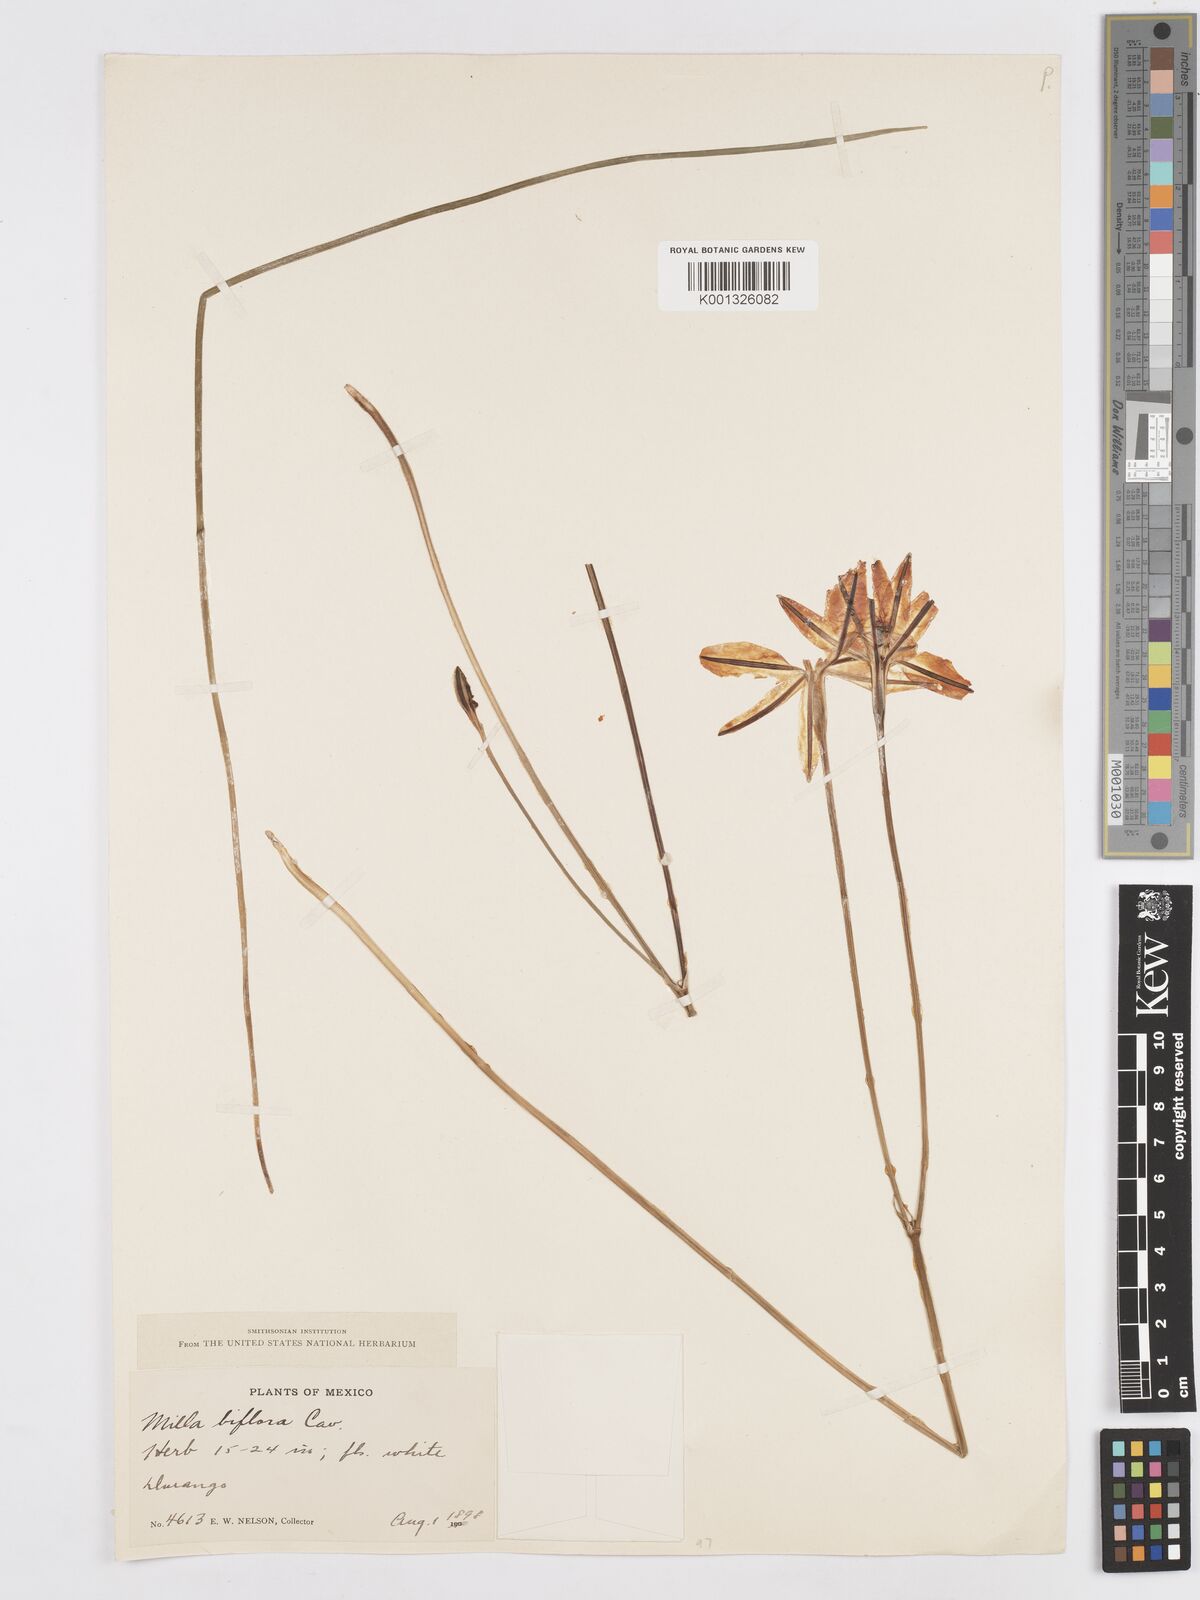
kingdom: Plantae
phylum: Tracheophyta
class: Liliopsida
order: Asparagales
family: Asparagaceae
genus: Milla
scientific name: Milla biflora
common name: Mexican-star
